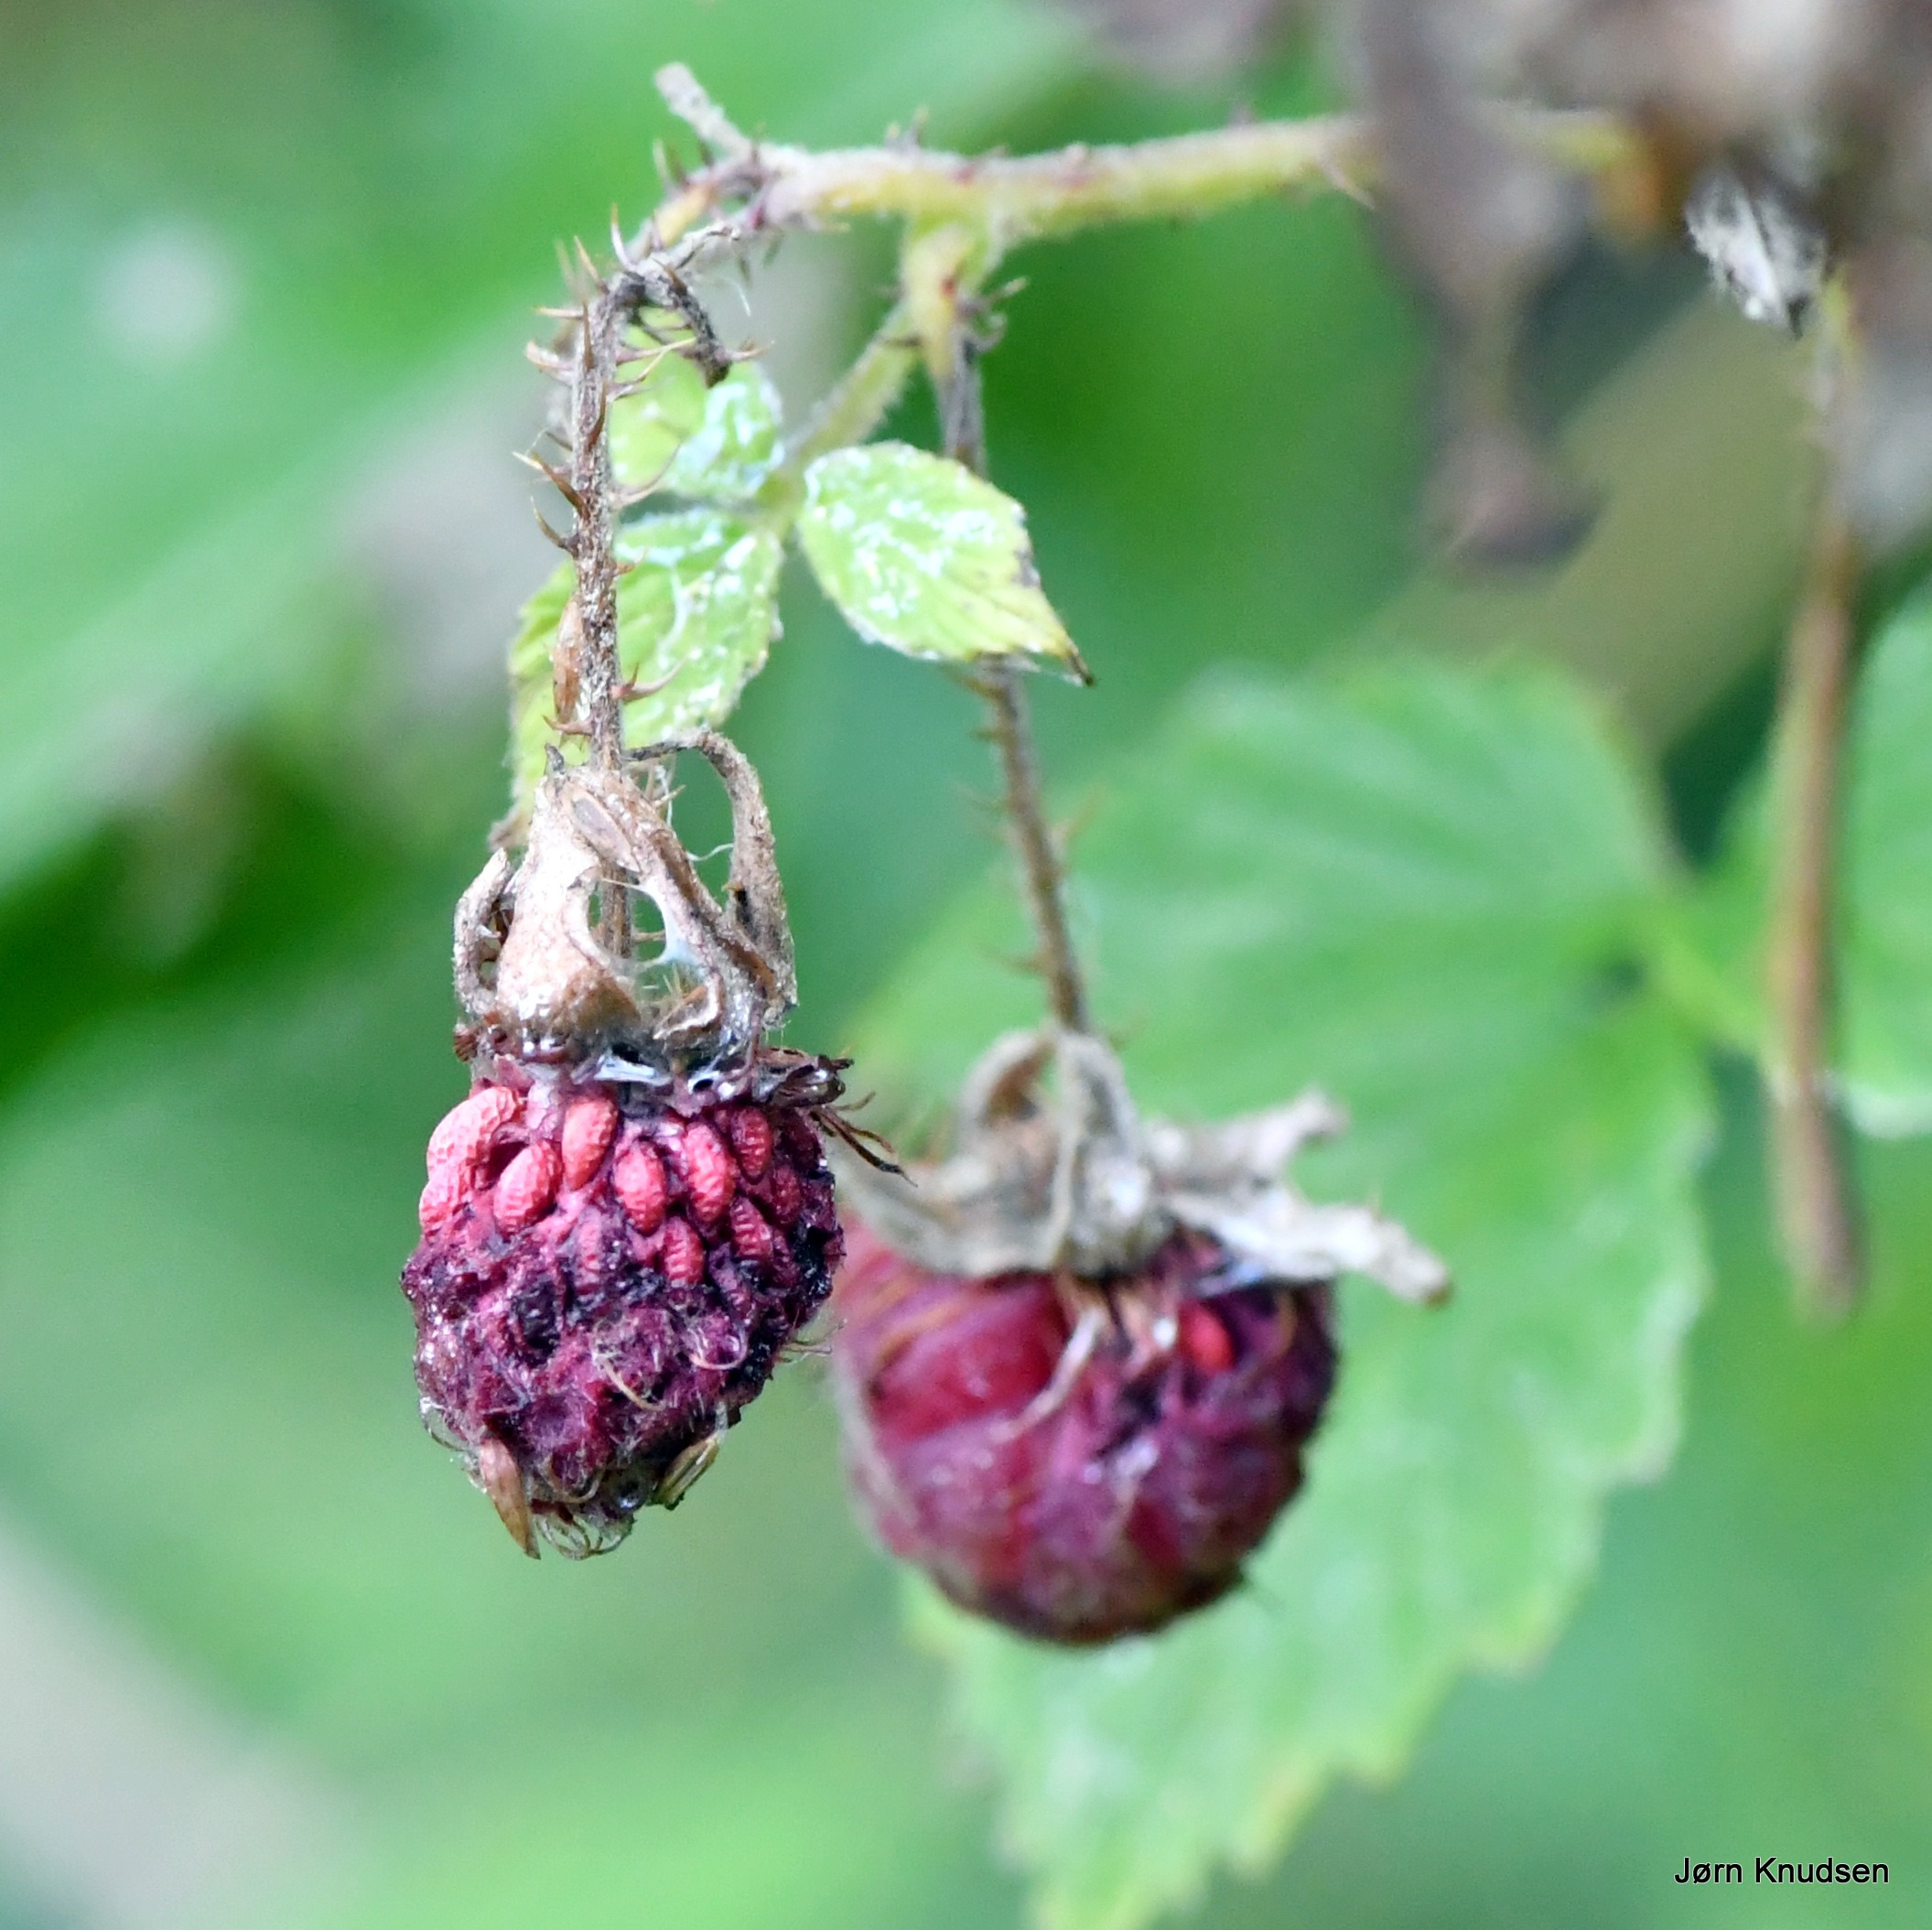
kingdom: Plantae
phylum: Tracheophyta
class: Magnoliopsida
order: Rosales
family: Rosaceae
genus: Rubus
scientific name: Rubus idaeus
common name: Hindbær
